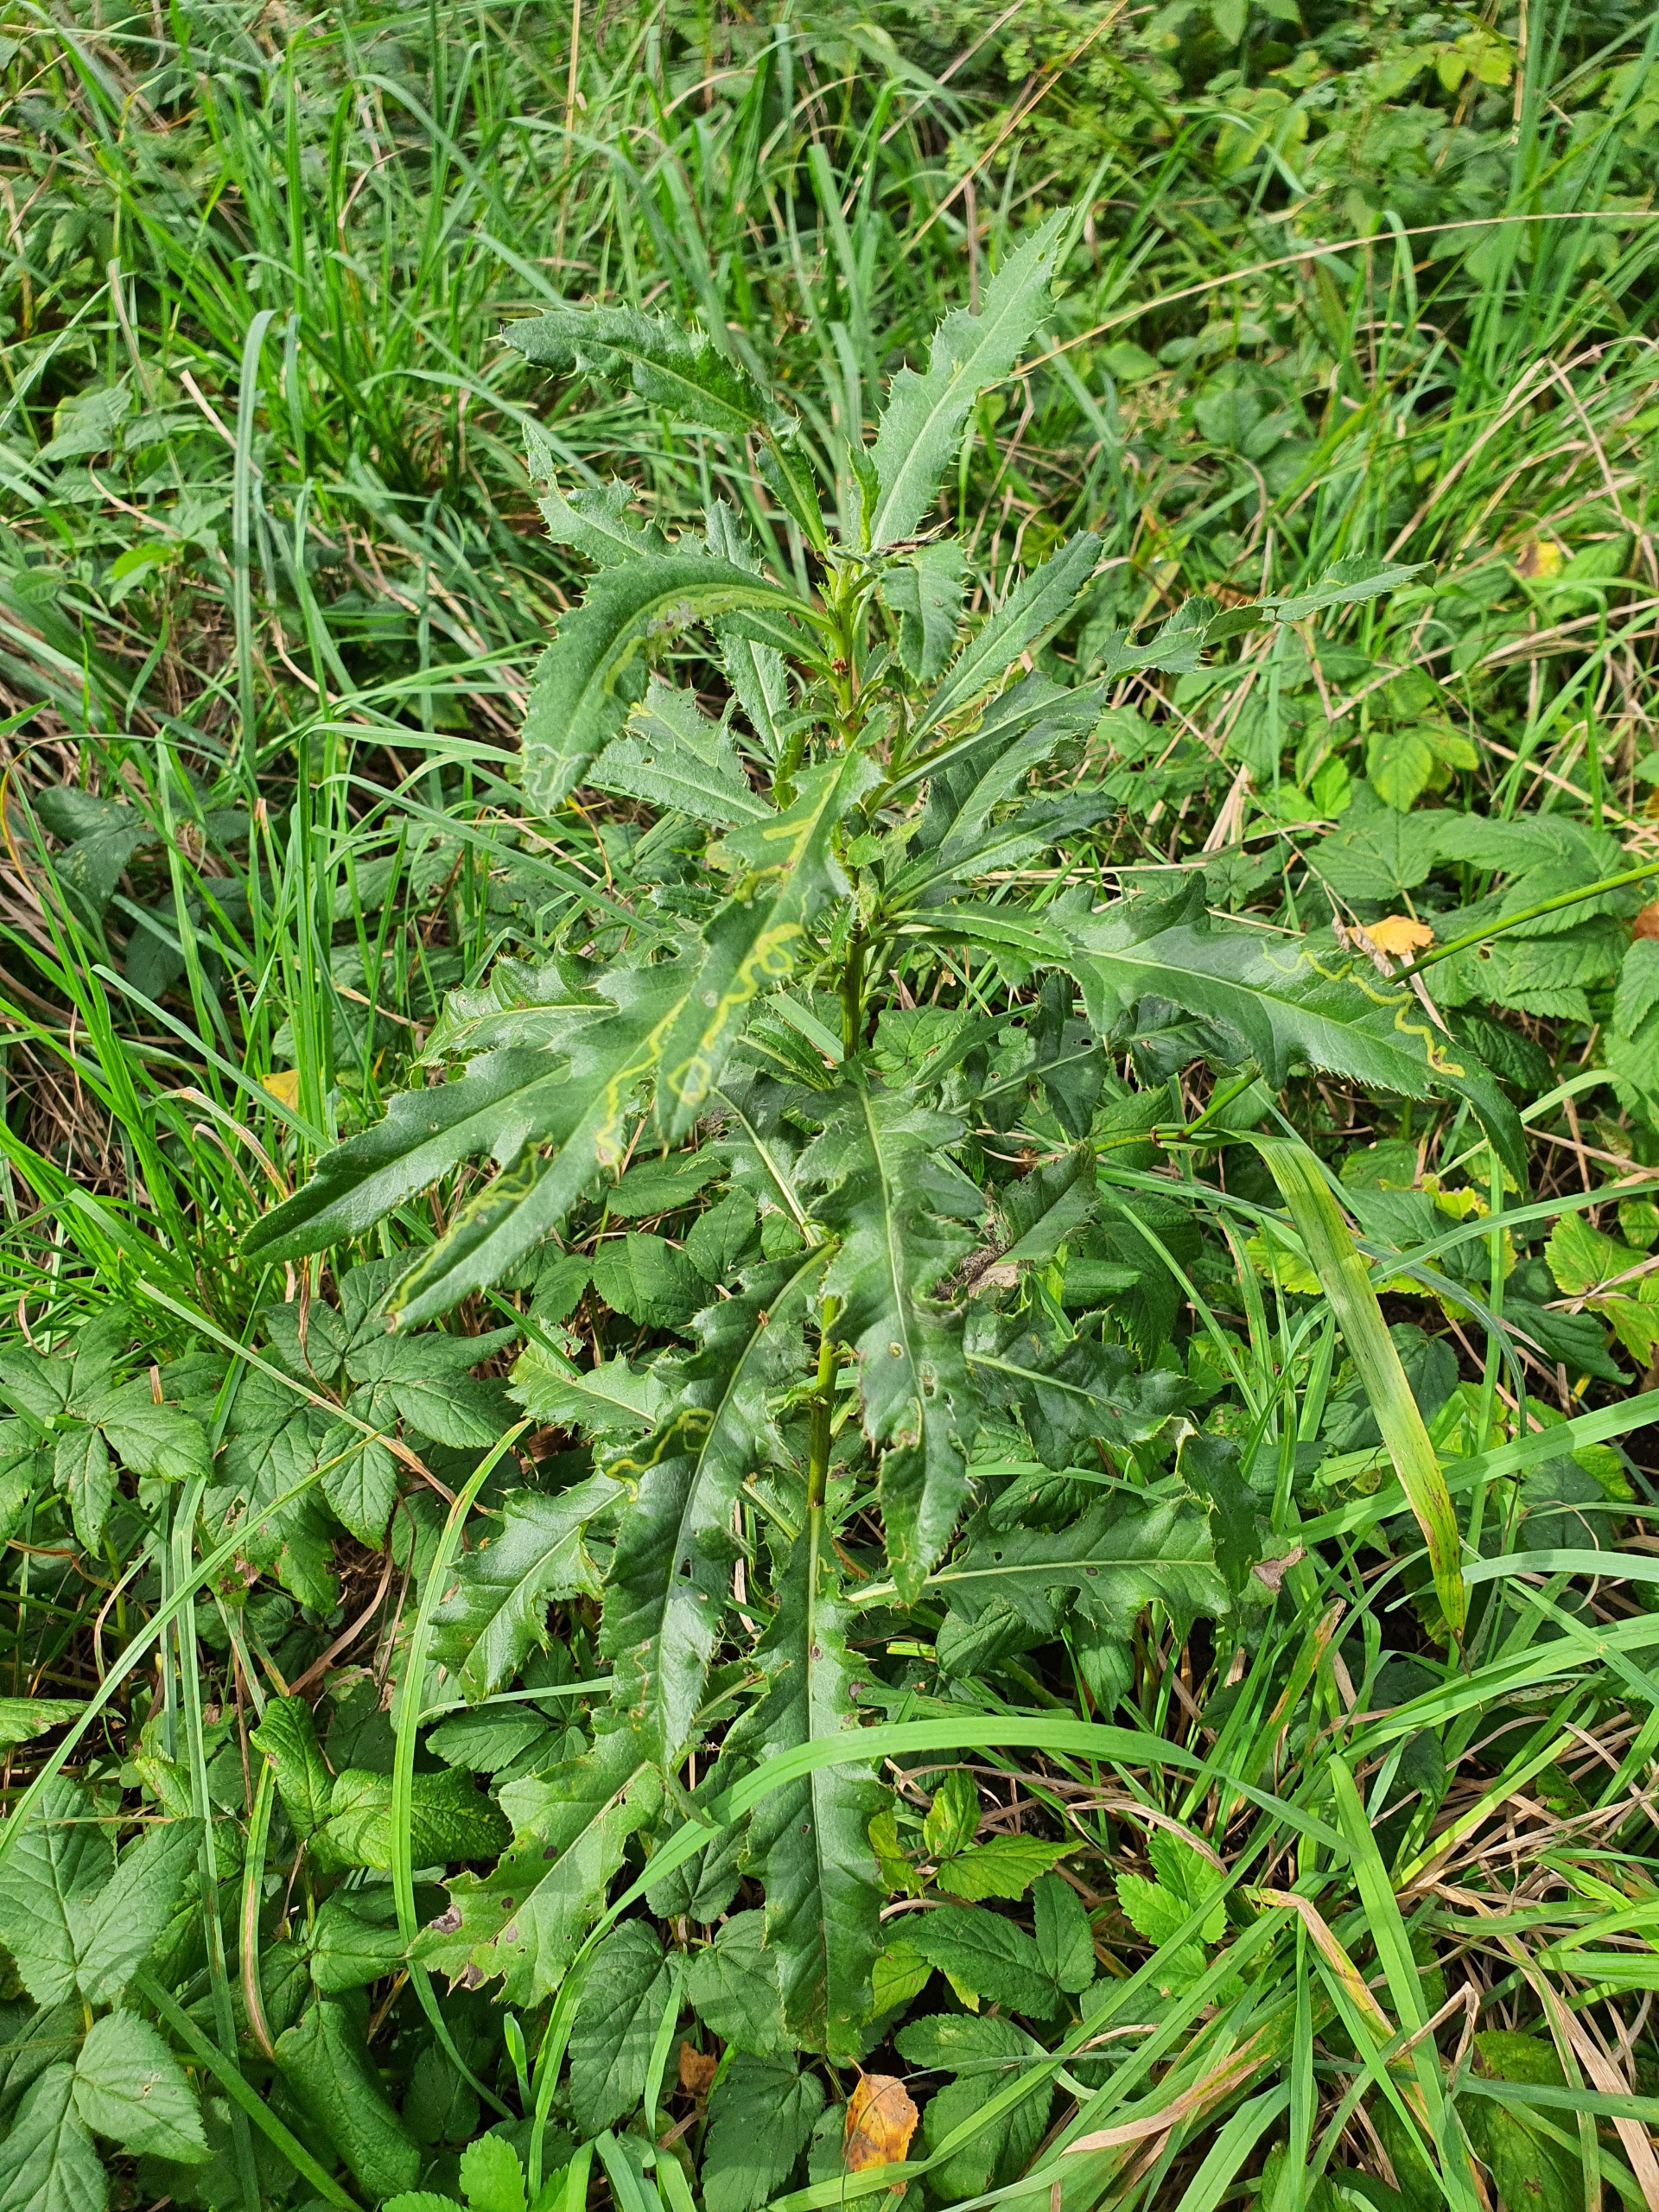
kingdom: Plantae
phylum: Tracheophyta
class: Magnoliopsida
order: Asterales
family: Asteraceae
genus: Cirsium
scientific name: Cirsium arvense
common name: Ager-tidsel
